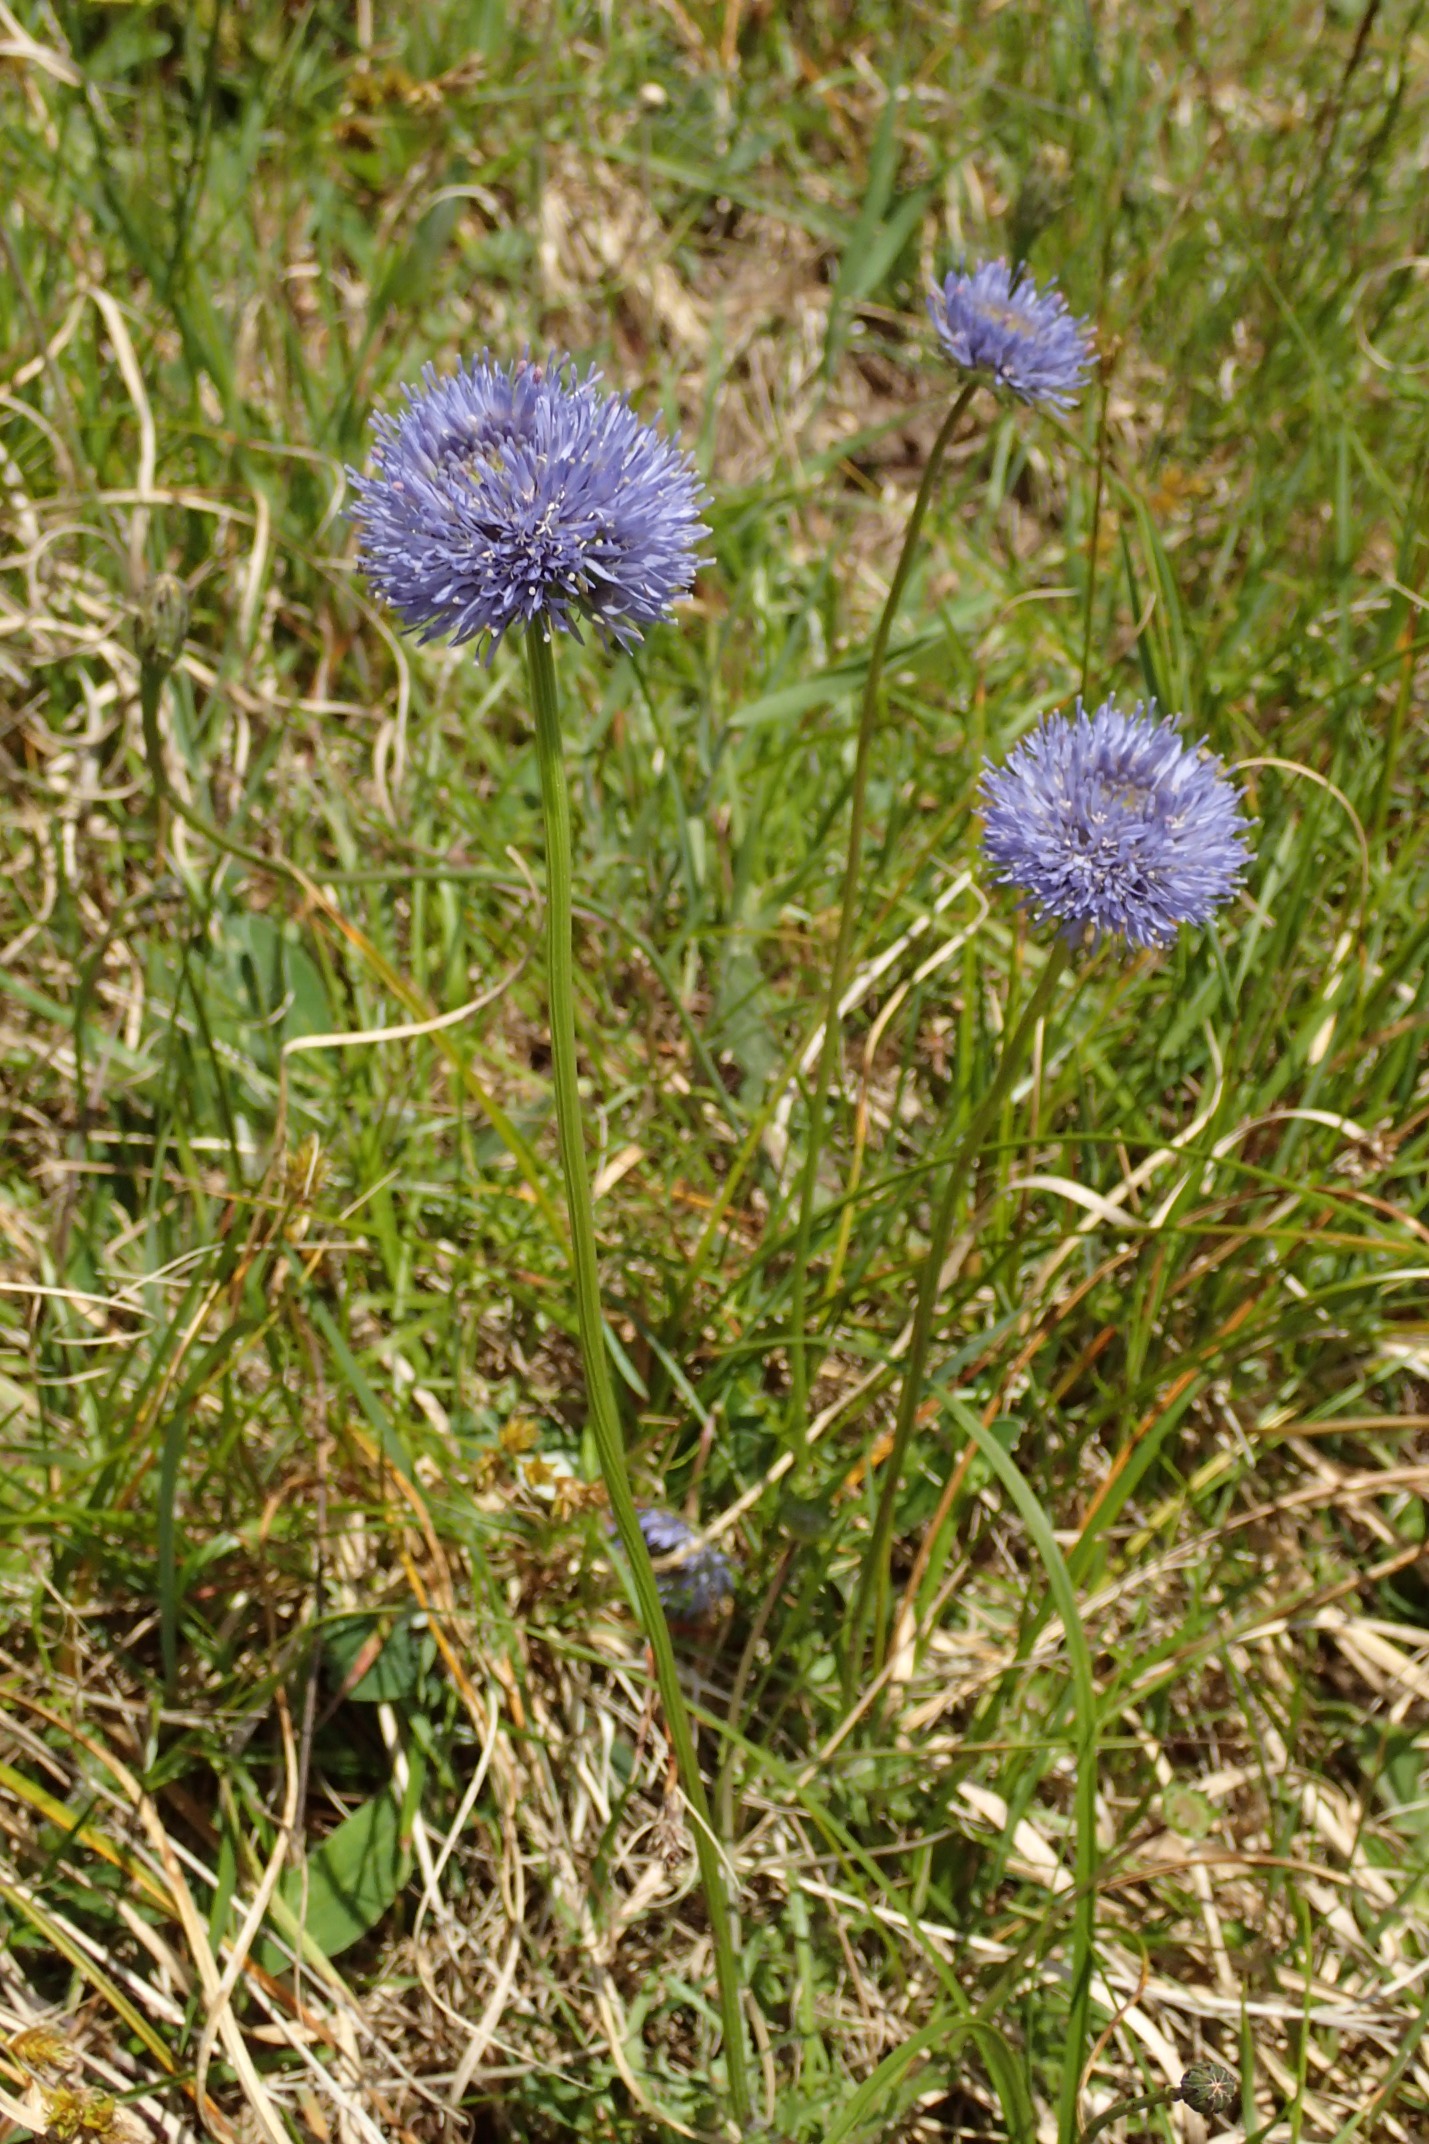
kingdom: Plantae
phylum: Tracheophyta
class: Magnoliopsida
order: Asterales
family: Campanulaceae
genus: Jasione
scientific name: Jasione montana
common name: Blåmunke
